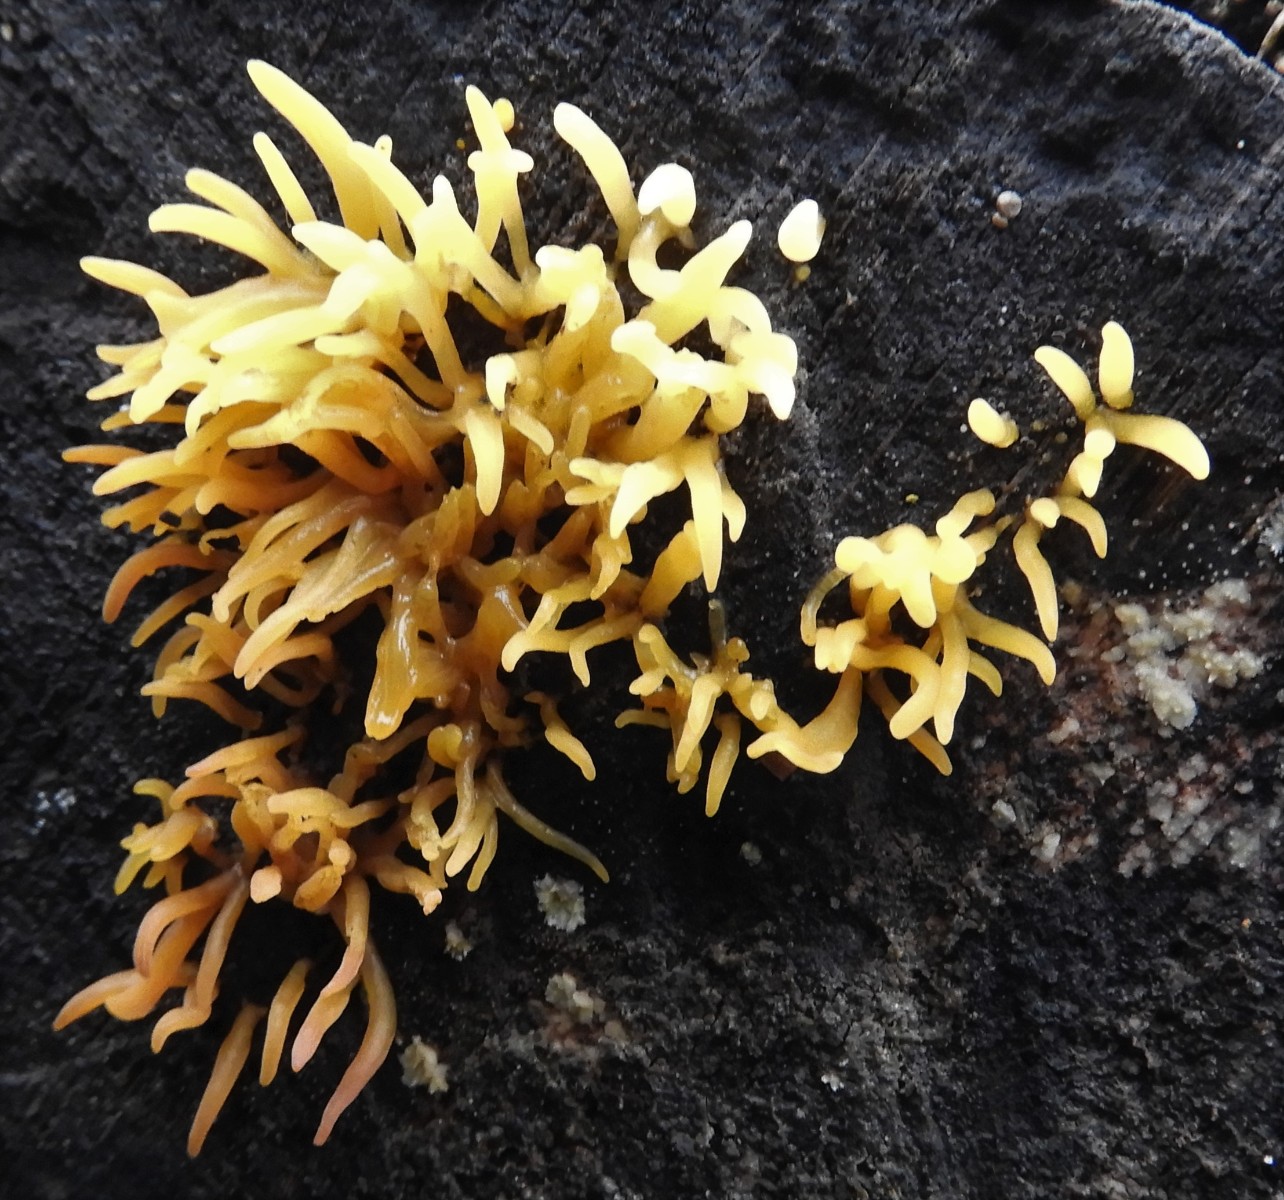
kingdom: Fungi
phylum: Basidiomycota
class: Dacrymycetes
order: Dacrymycetales
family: Dacrymycetaceae
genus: Calocera
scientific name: Calocera cornea
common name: liden guldgaffel
